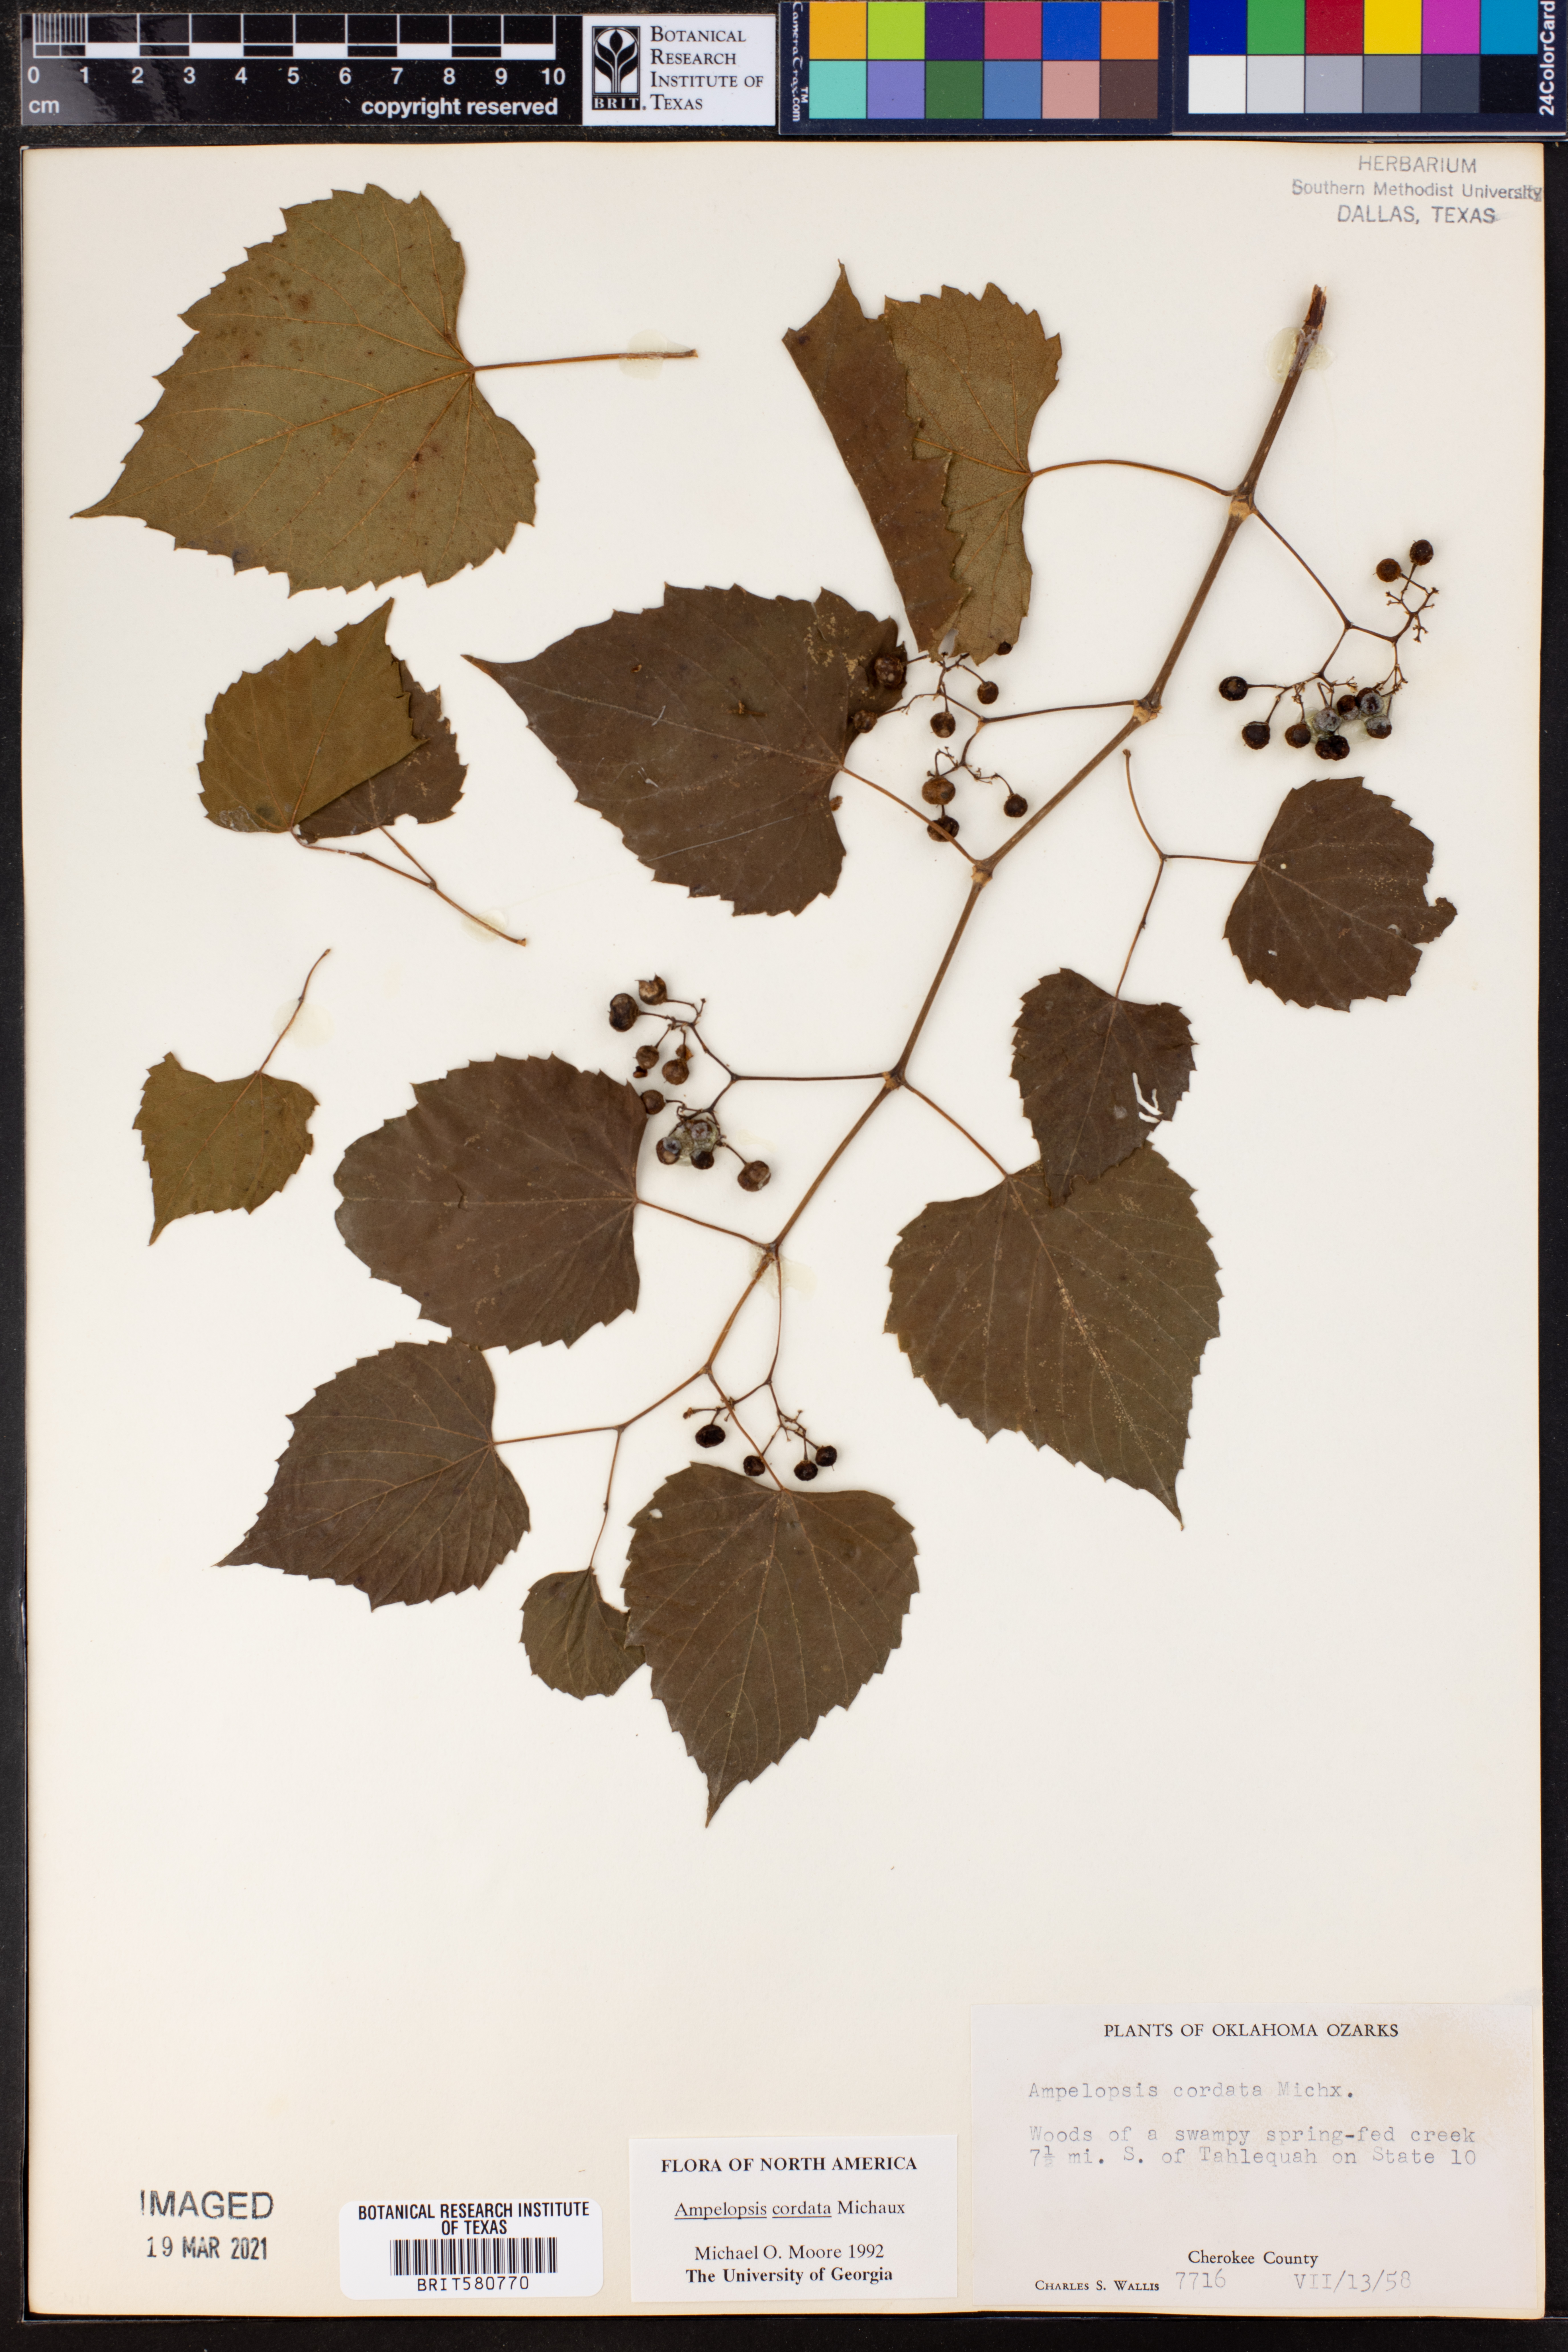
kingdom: Plantae
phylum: Tracheophyta
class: Magnoliopsida
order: Vitales
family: Vitaceae
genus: Ampelopsis
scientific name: Ampelopsis cordata
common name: Heart-leaf ampelopsis
